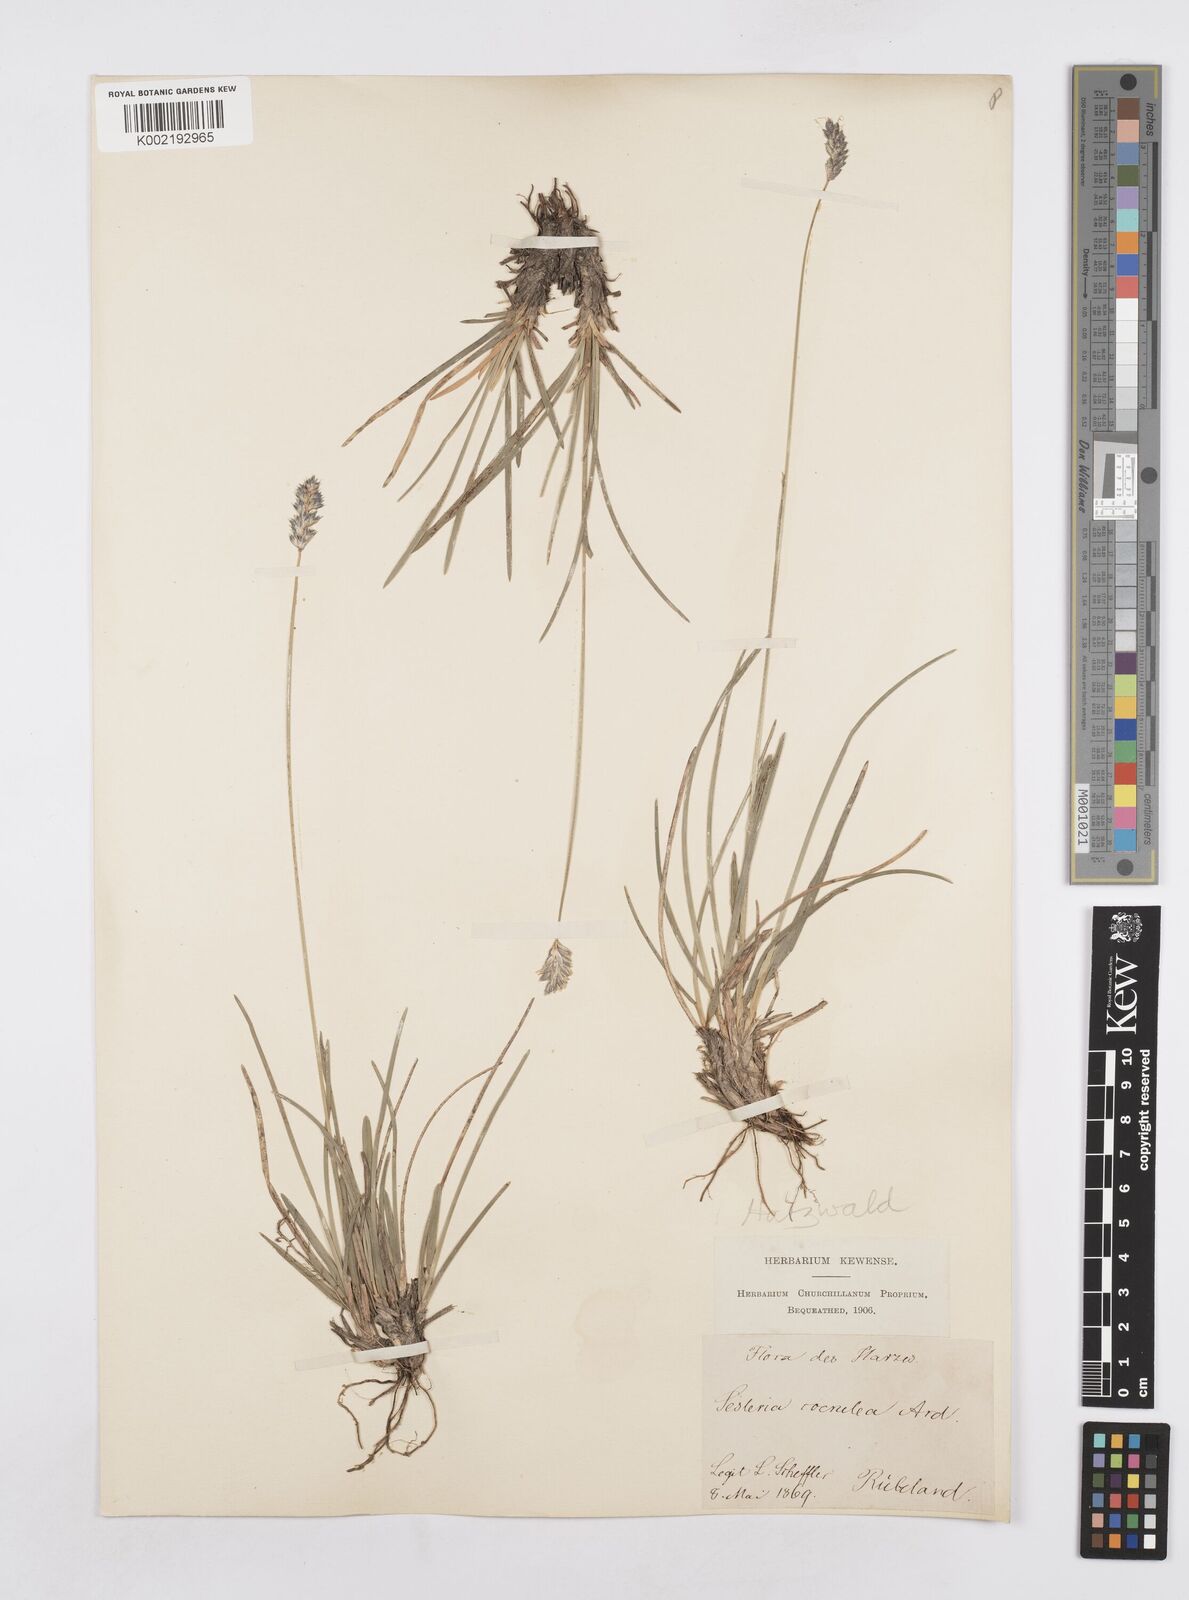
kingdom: Plantae
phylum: Tracheophyta
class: Liliopsida
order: Poales
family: Poaceae
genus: Sesleria
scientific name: Sesleria caerulea
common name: Blue moor-grass
